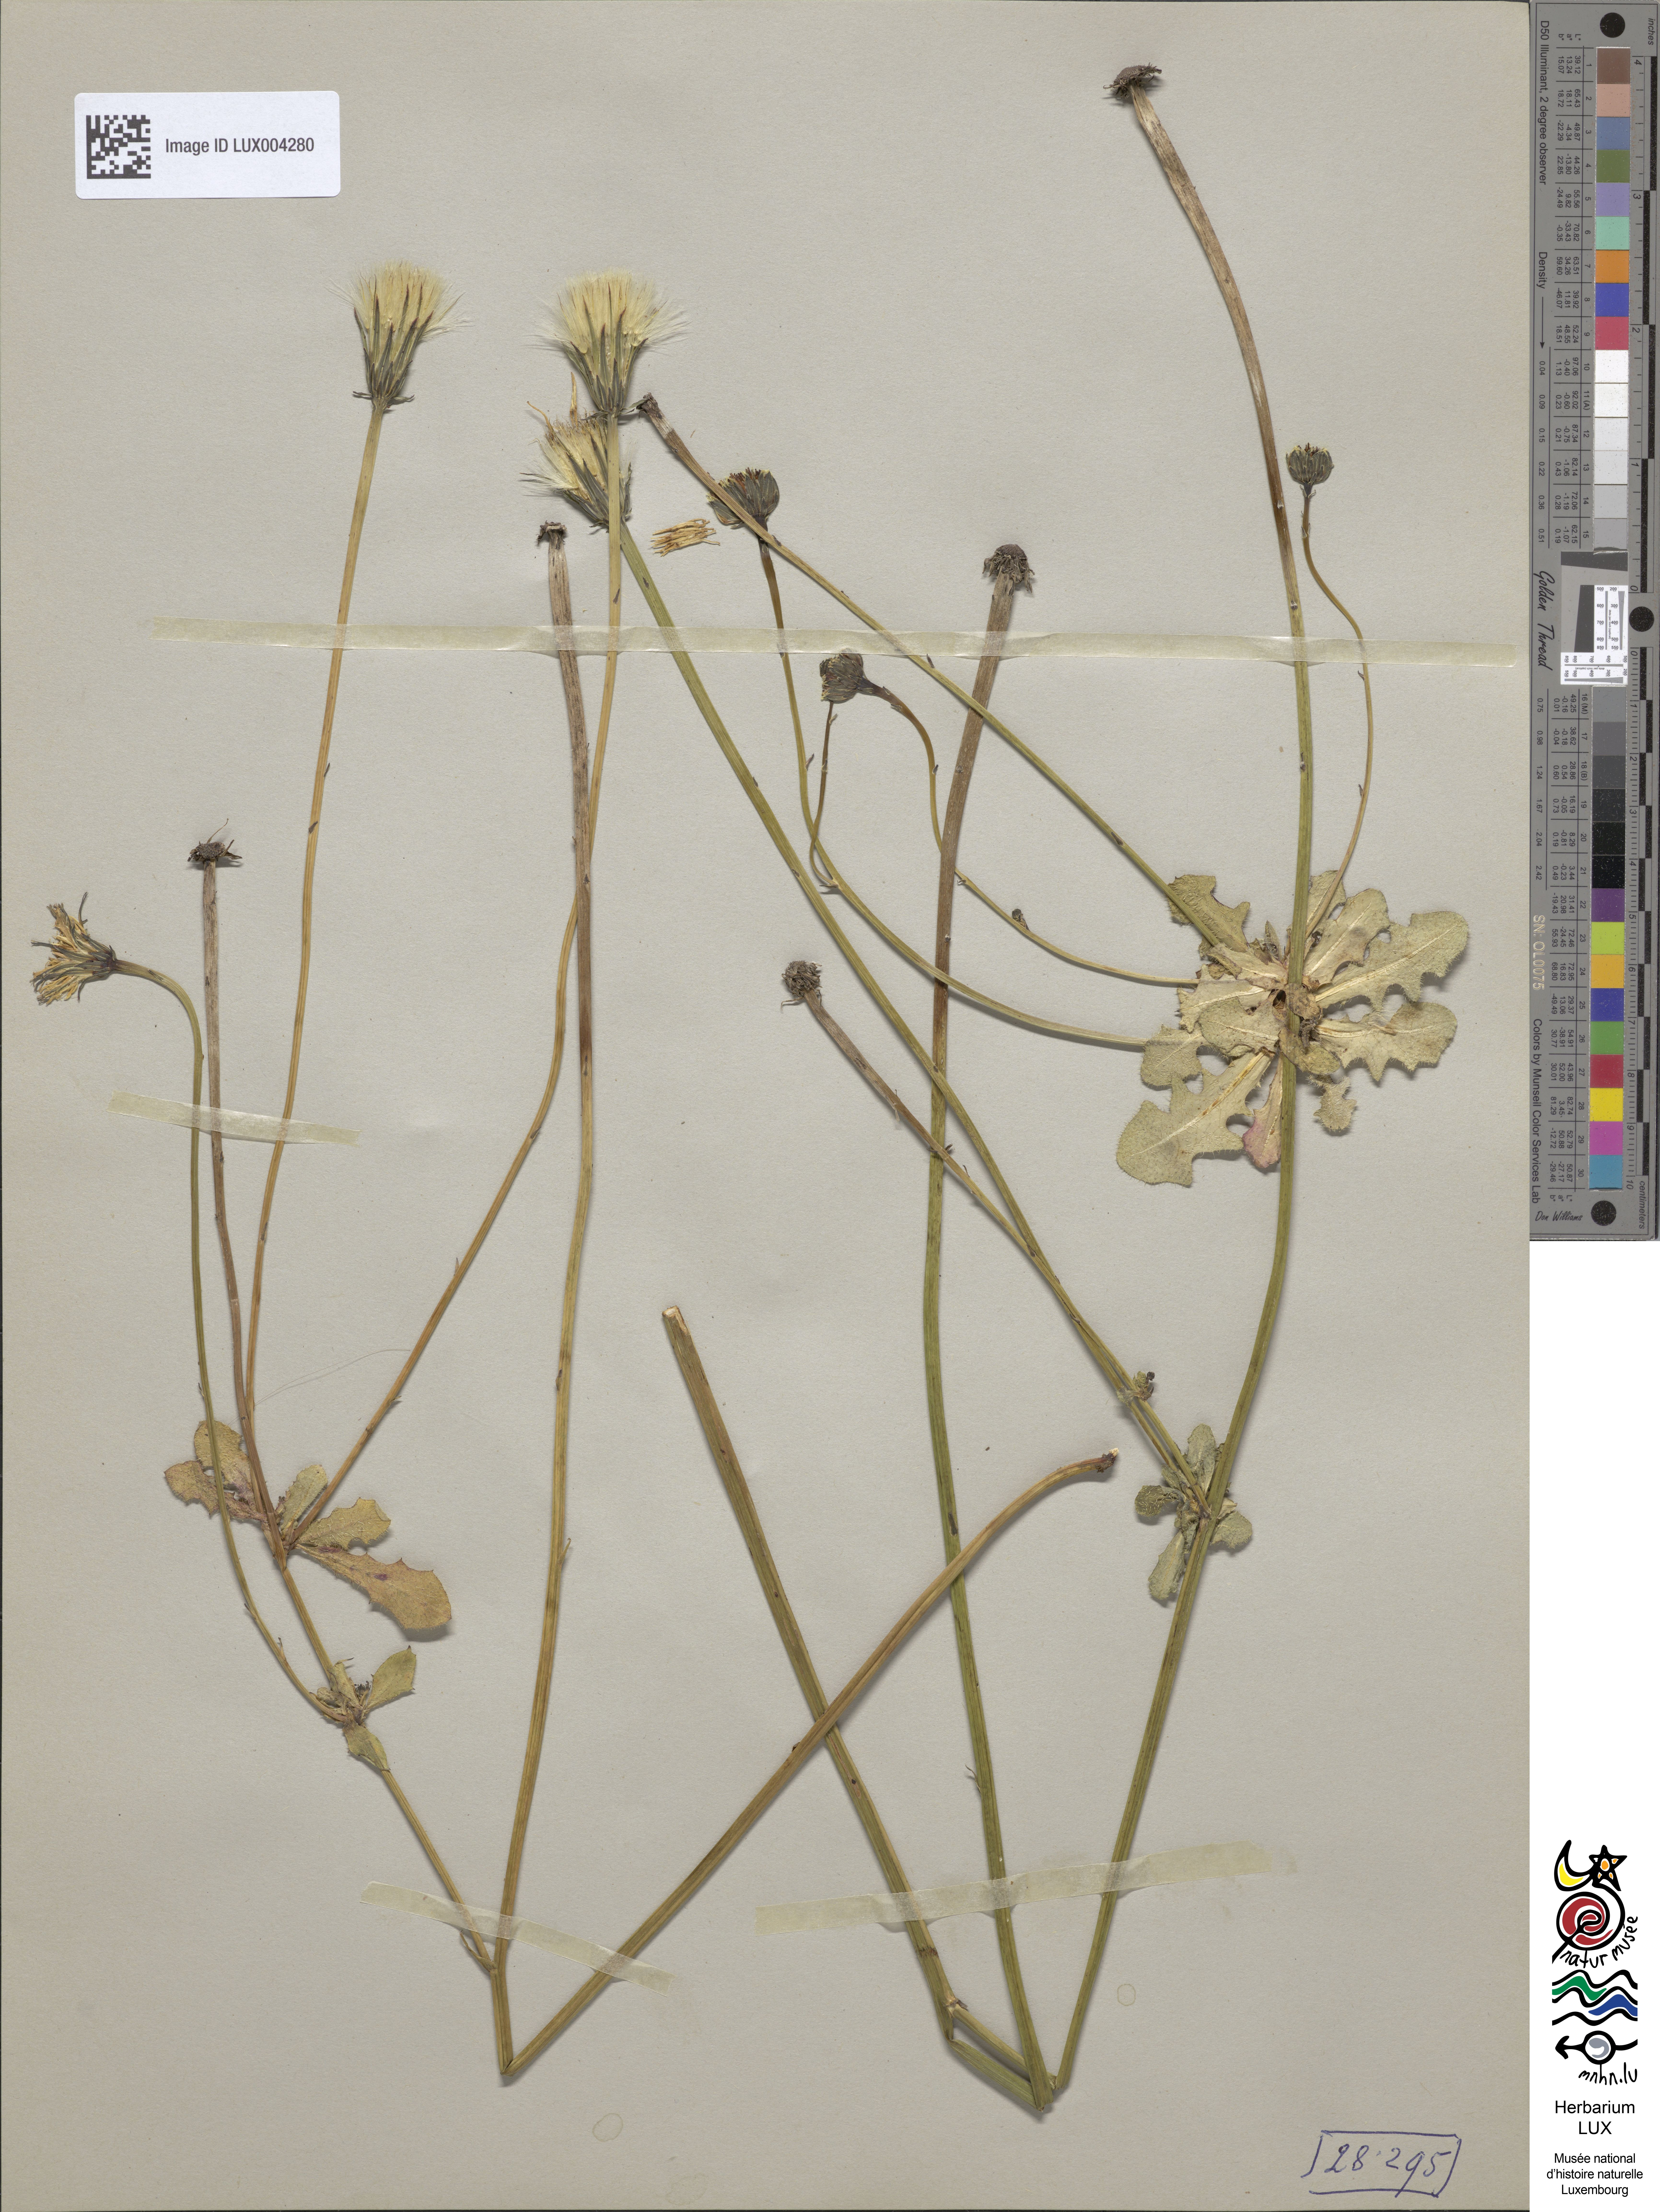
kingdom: Plantae
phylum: Tracheophyta
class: Magnoliopsida
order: Asterales
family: Asteraceae
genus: Hypochoeris
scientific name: Hypochoeris radicata
